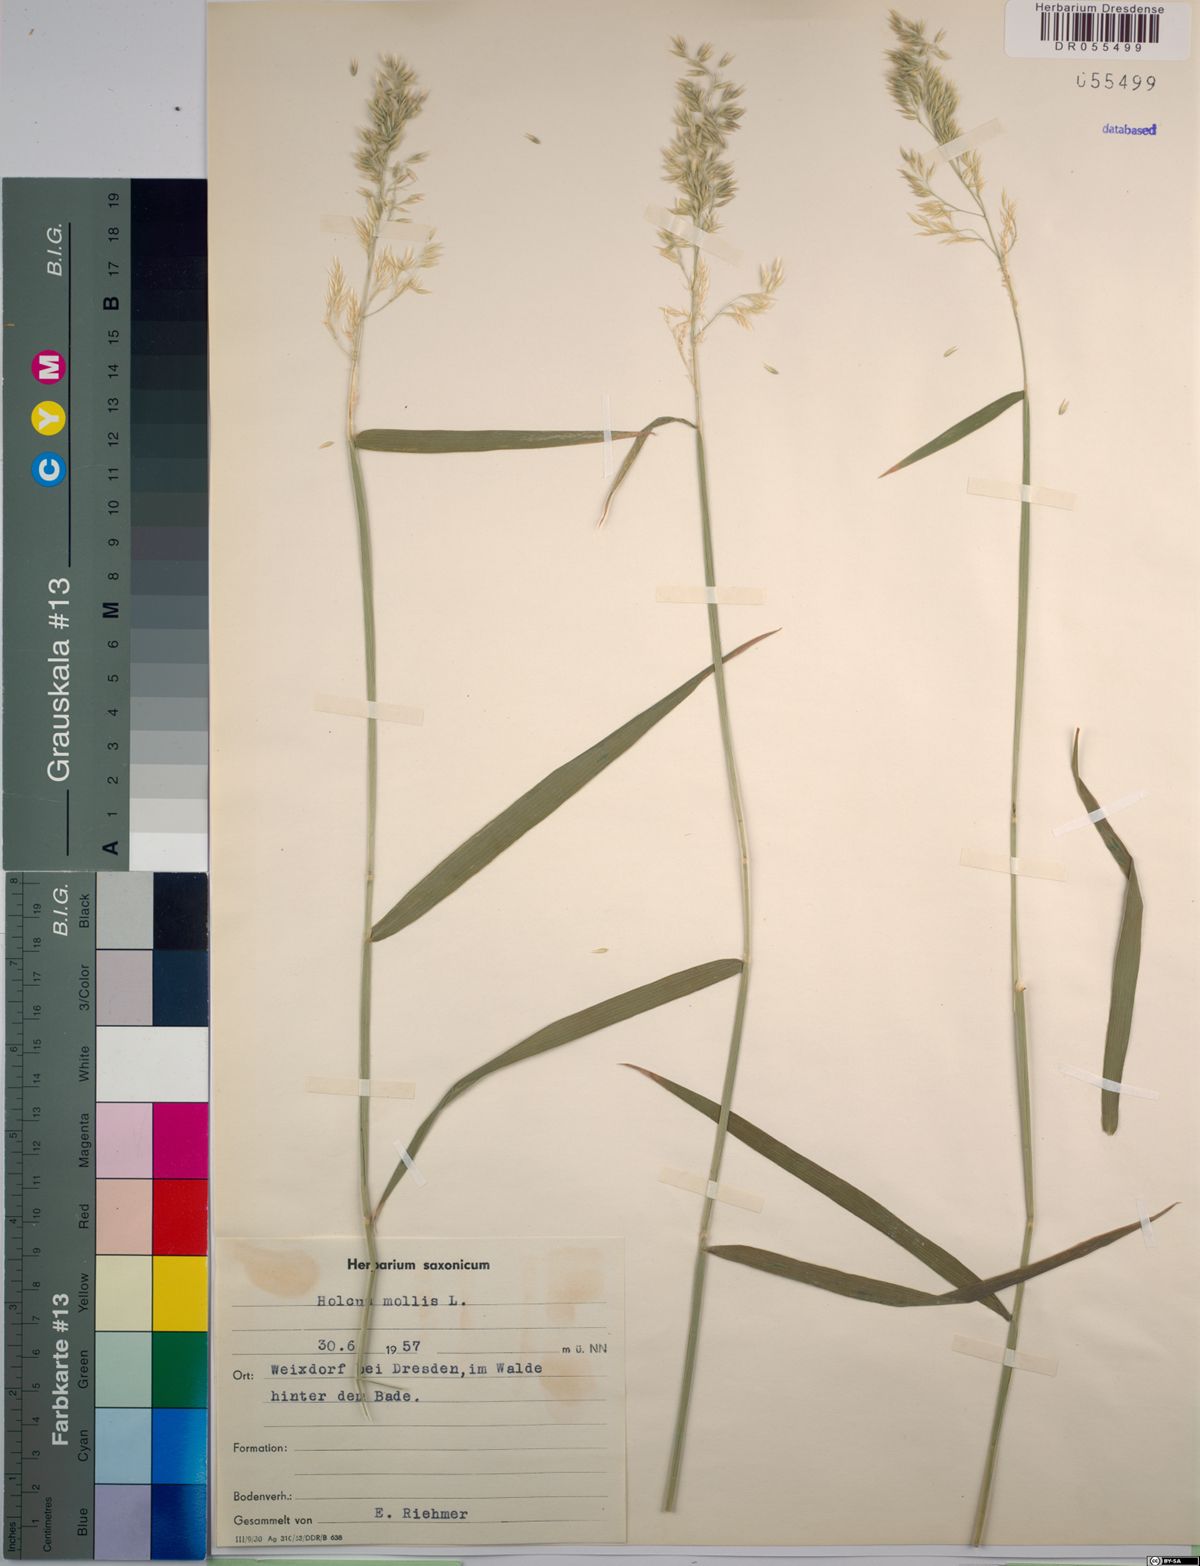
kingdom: Plantae
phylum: Tracheophyta
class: Liliopsida
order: Poales
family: Poaceae
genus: Holcus
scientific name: Holcus mollis
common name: Creeping velvetgrass
